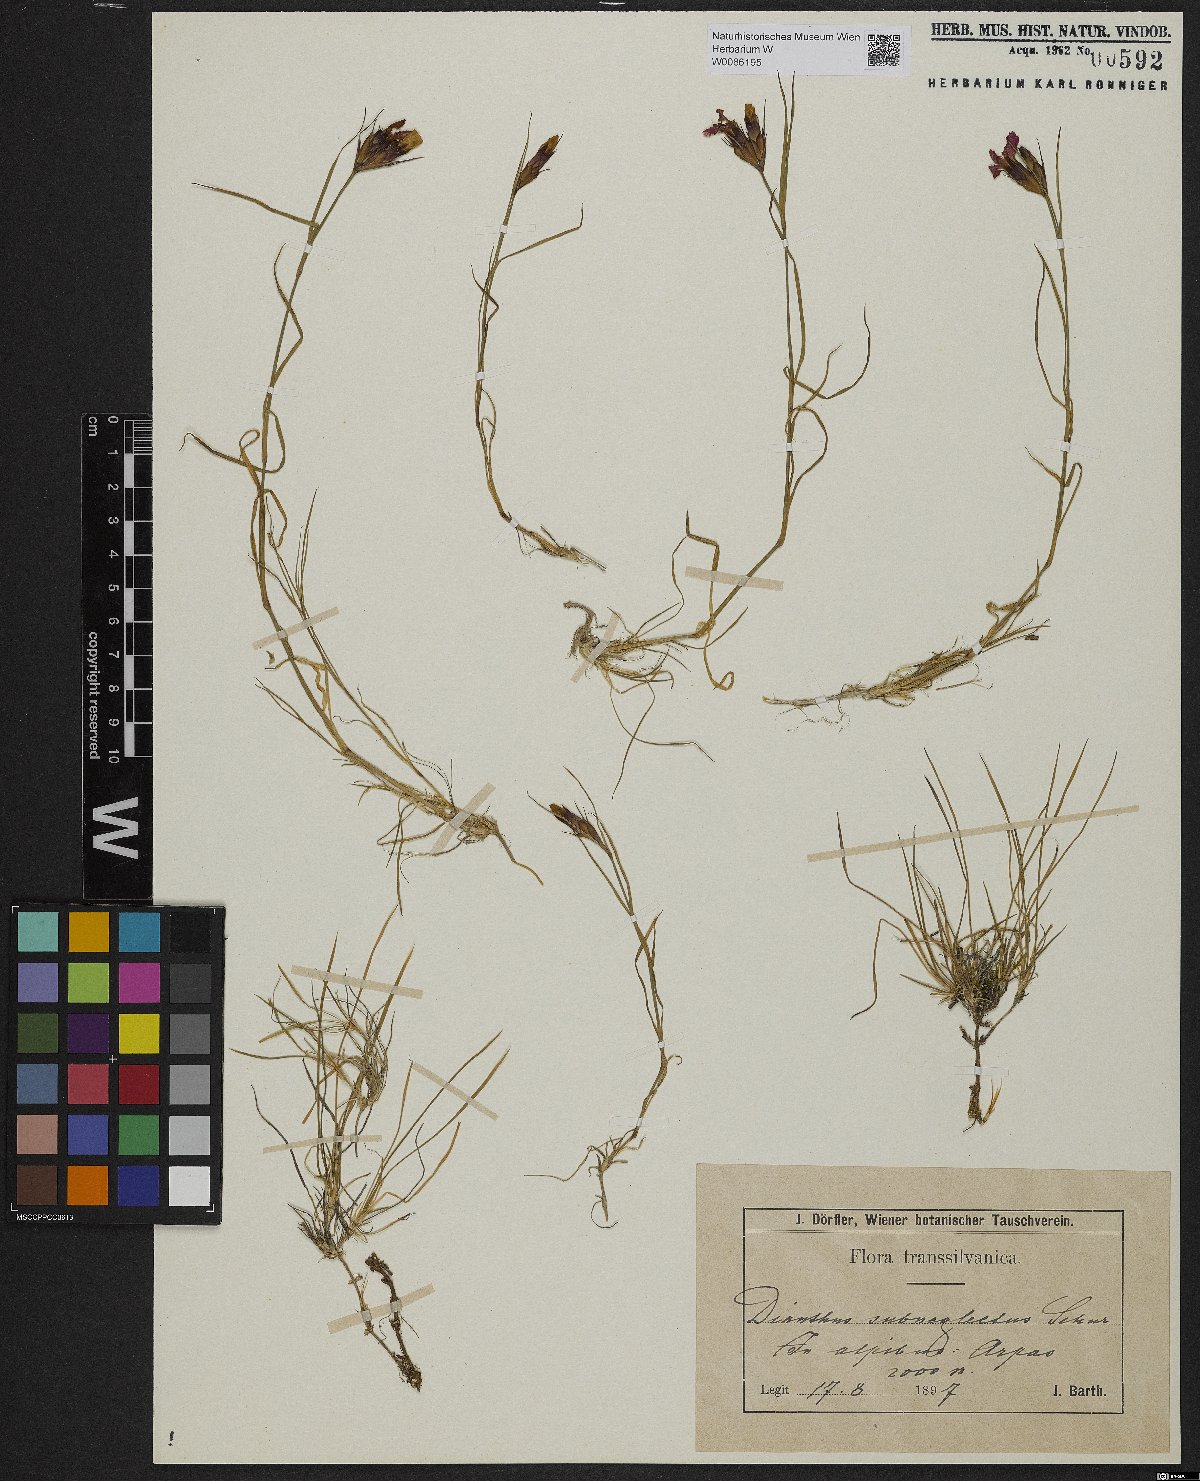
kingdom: Plantae
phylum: Tracheophyta
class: Magnoliopsida
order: Caryophyllales
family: Caryophyllaceae
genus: Dianthus
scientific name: Dianthus carthusianorum
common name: Carthusian pink
